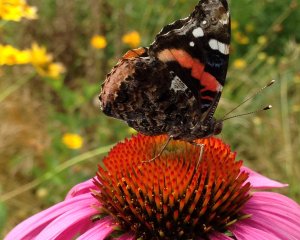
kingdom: Animalia
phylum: Arthropoda
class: Insecta
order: Lepidoptera
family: Nymphalidae
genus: Vanessa
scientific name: Vanessa atalanta
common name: Red Admiral
